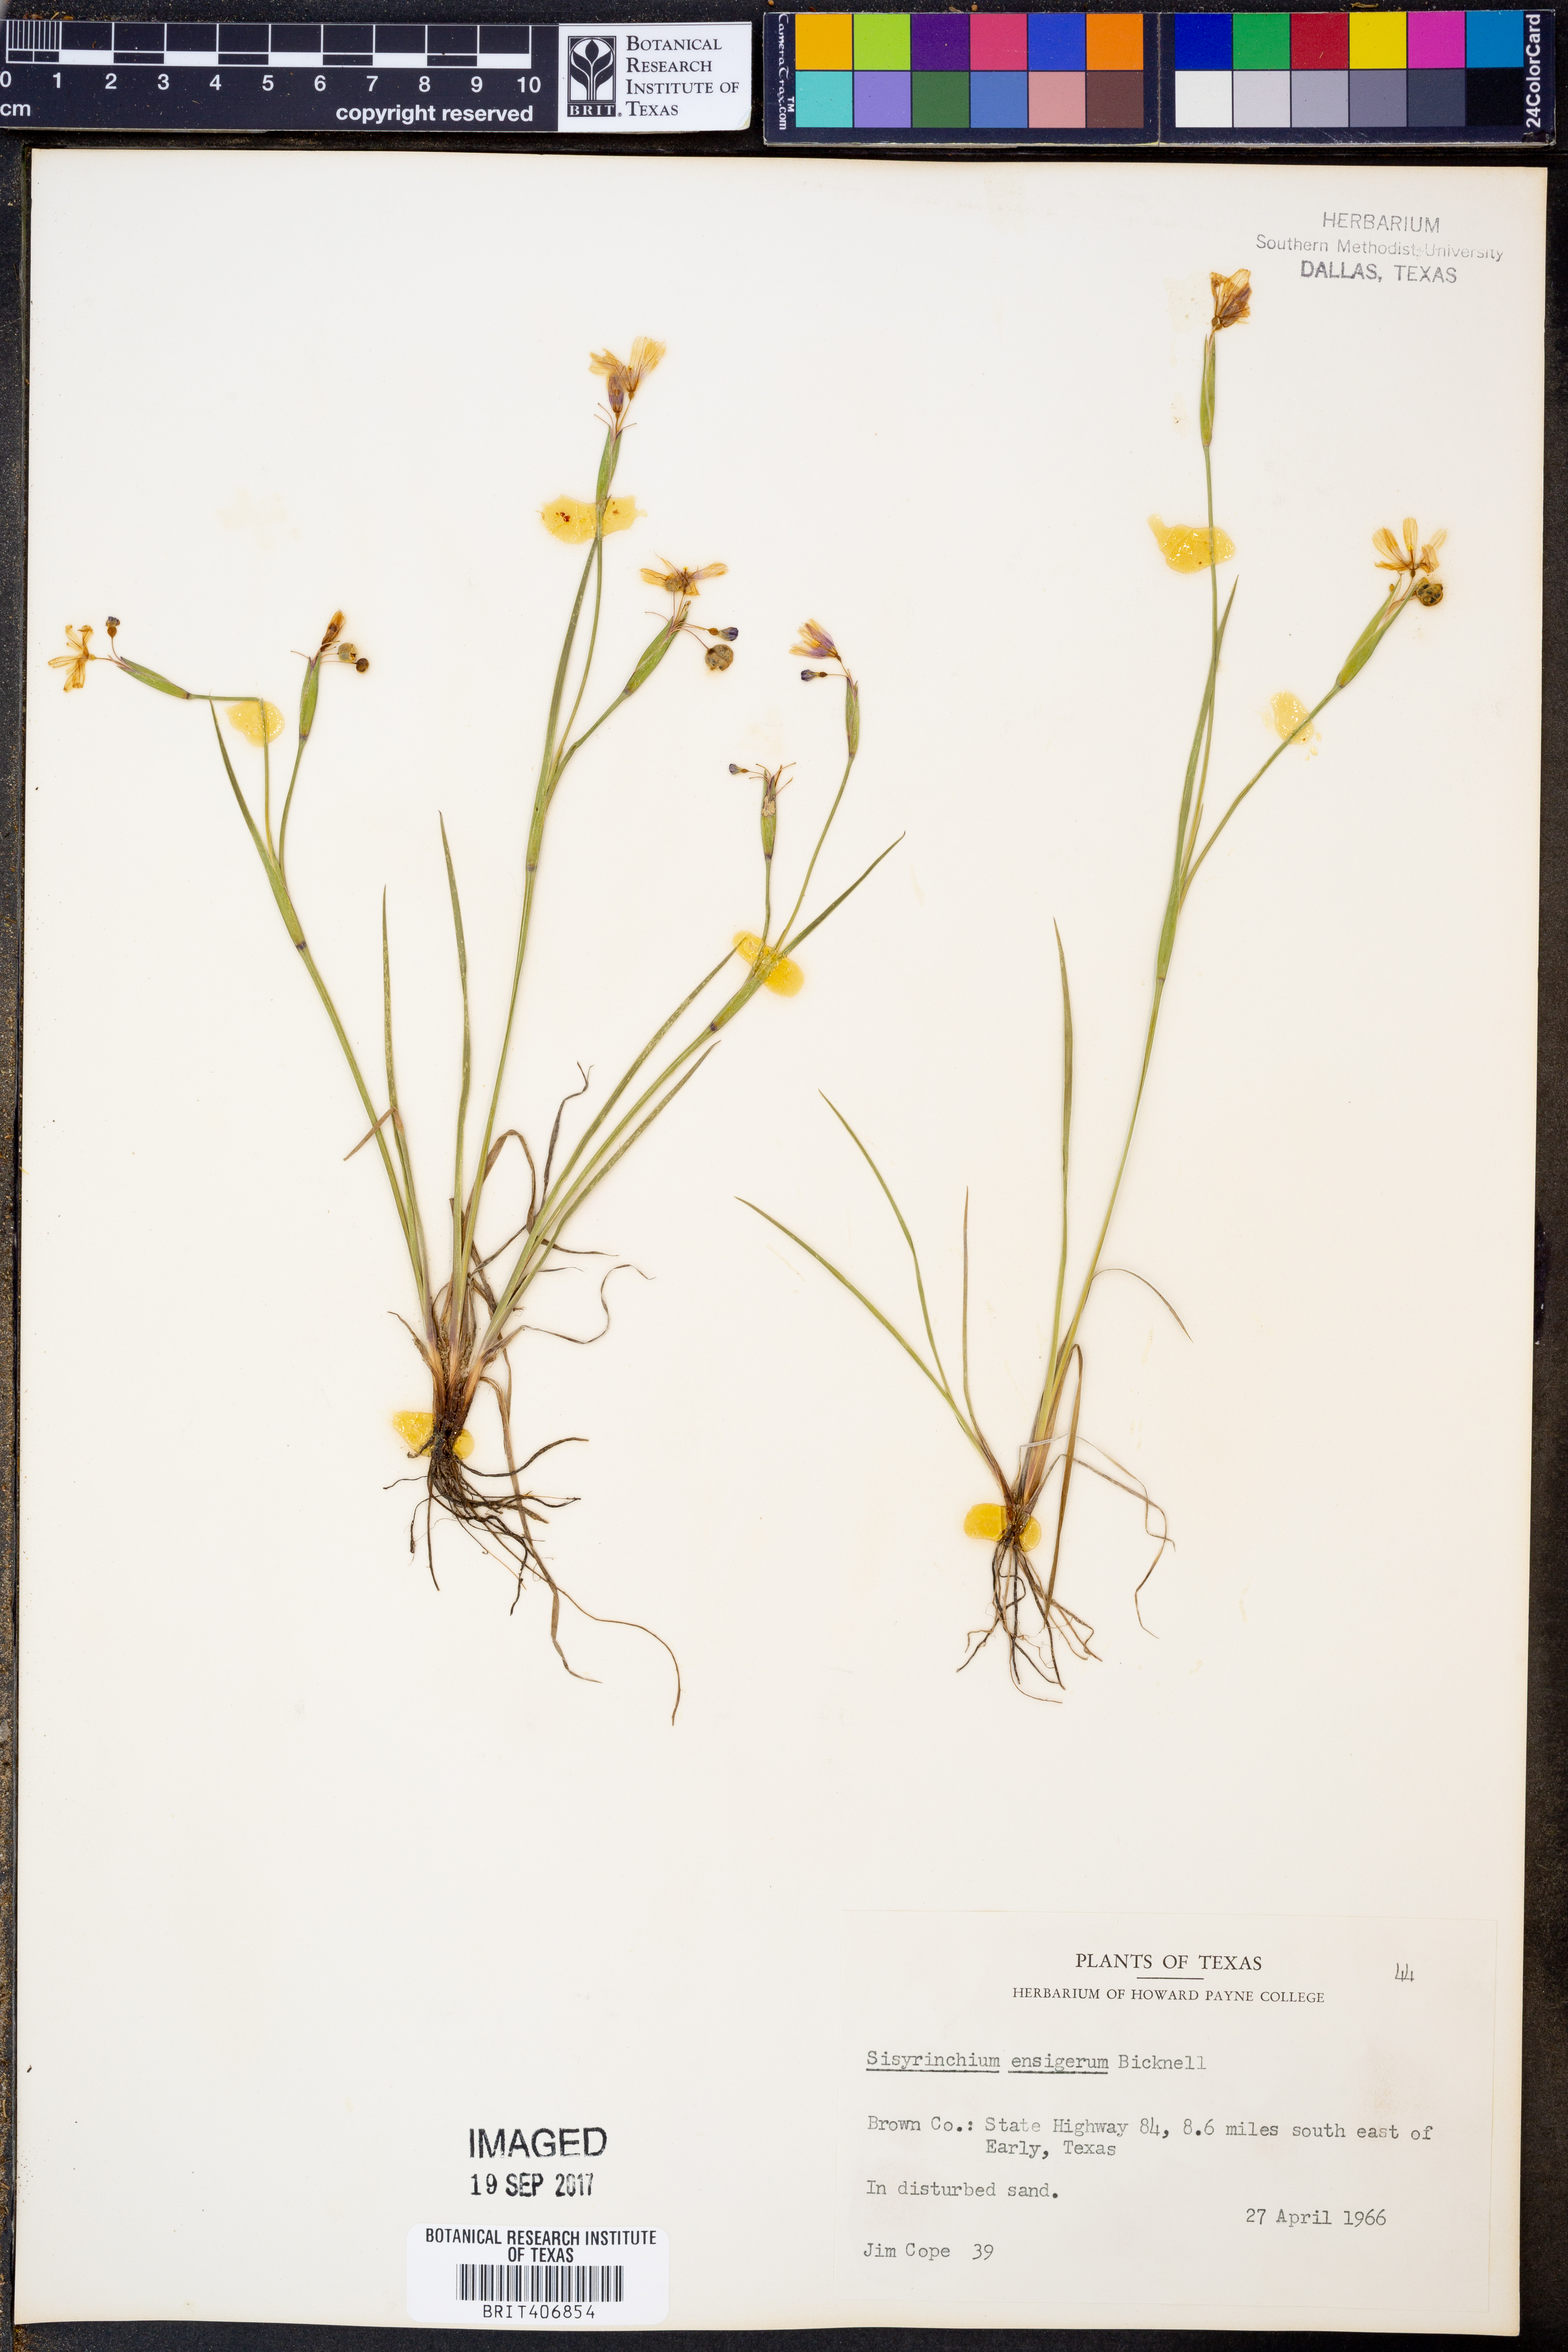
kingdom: Plantae
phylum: Tracheophyta
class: Liliopsida
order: Asparagales
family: Iridaceae
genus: Sisyrinchium
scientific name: Sisyrinchium ensigerum
